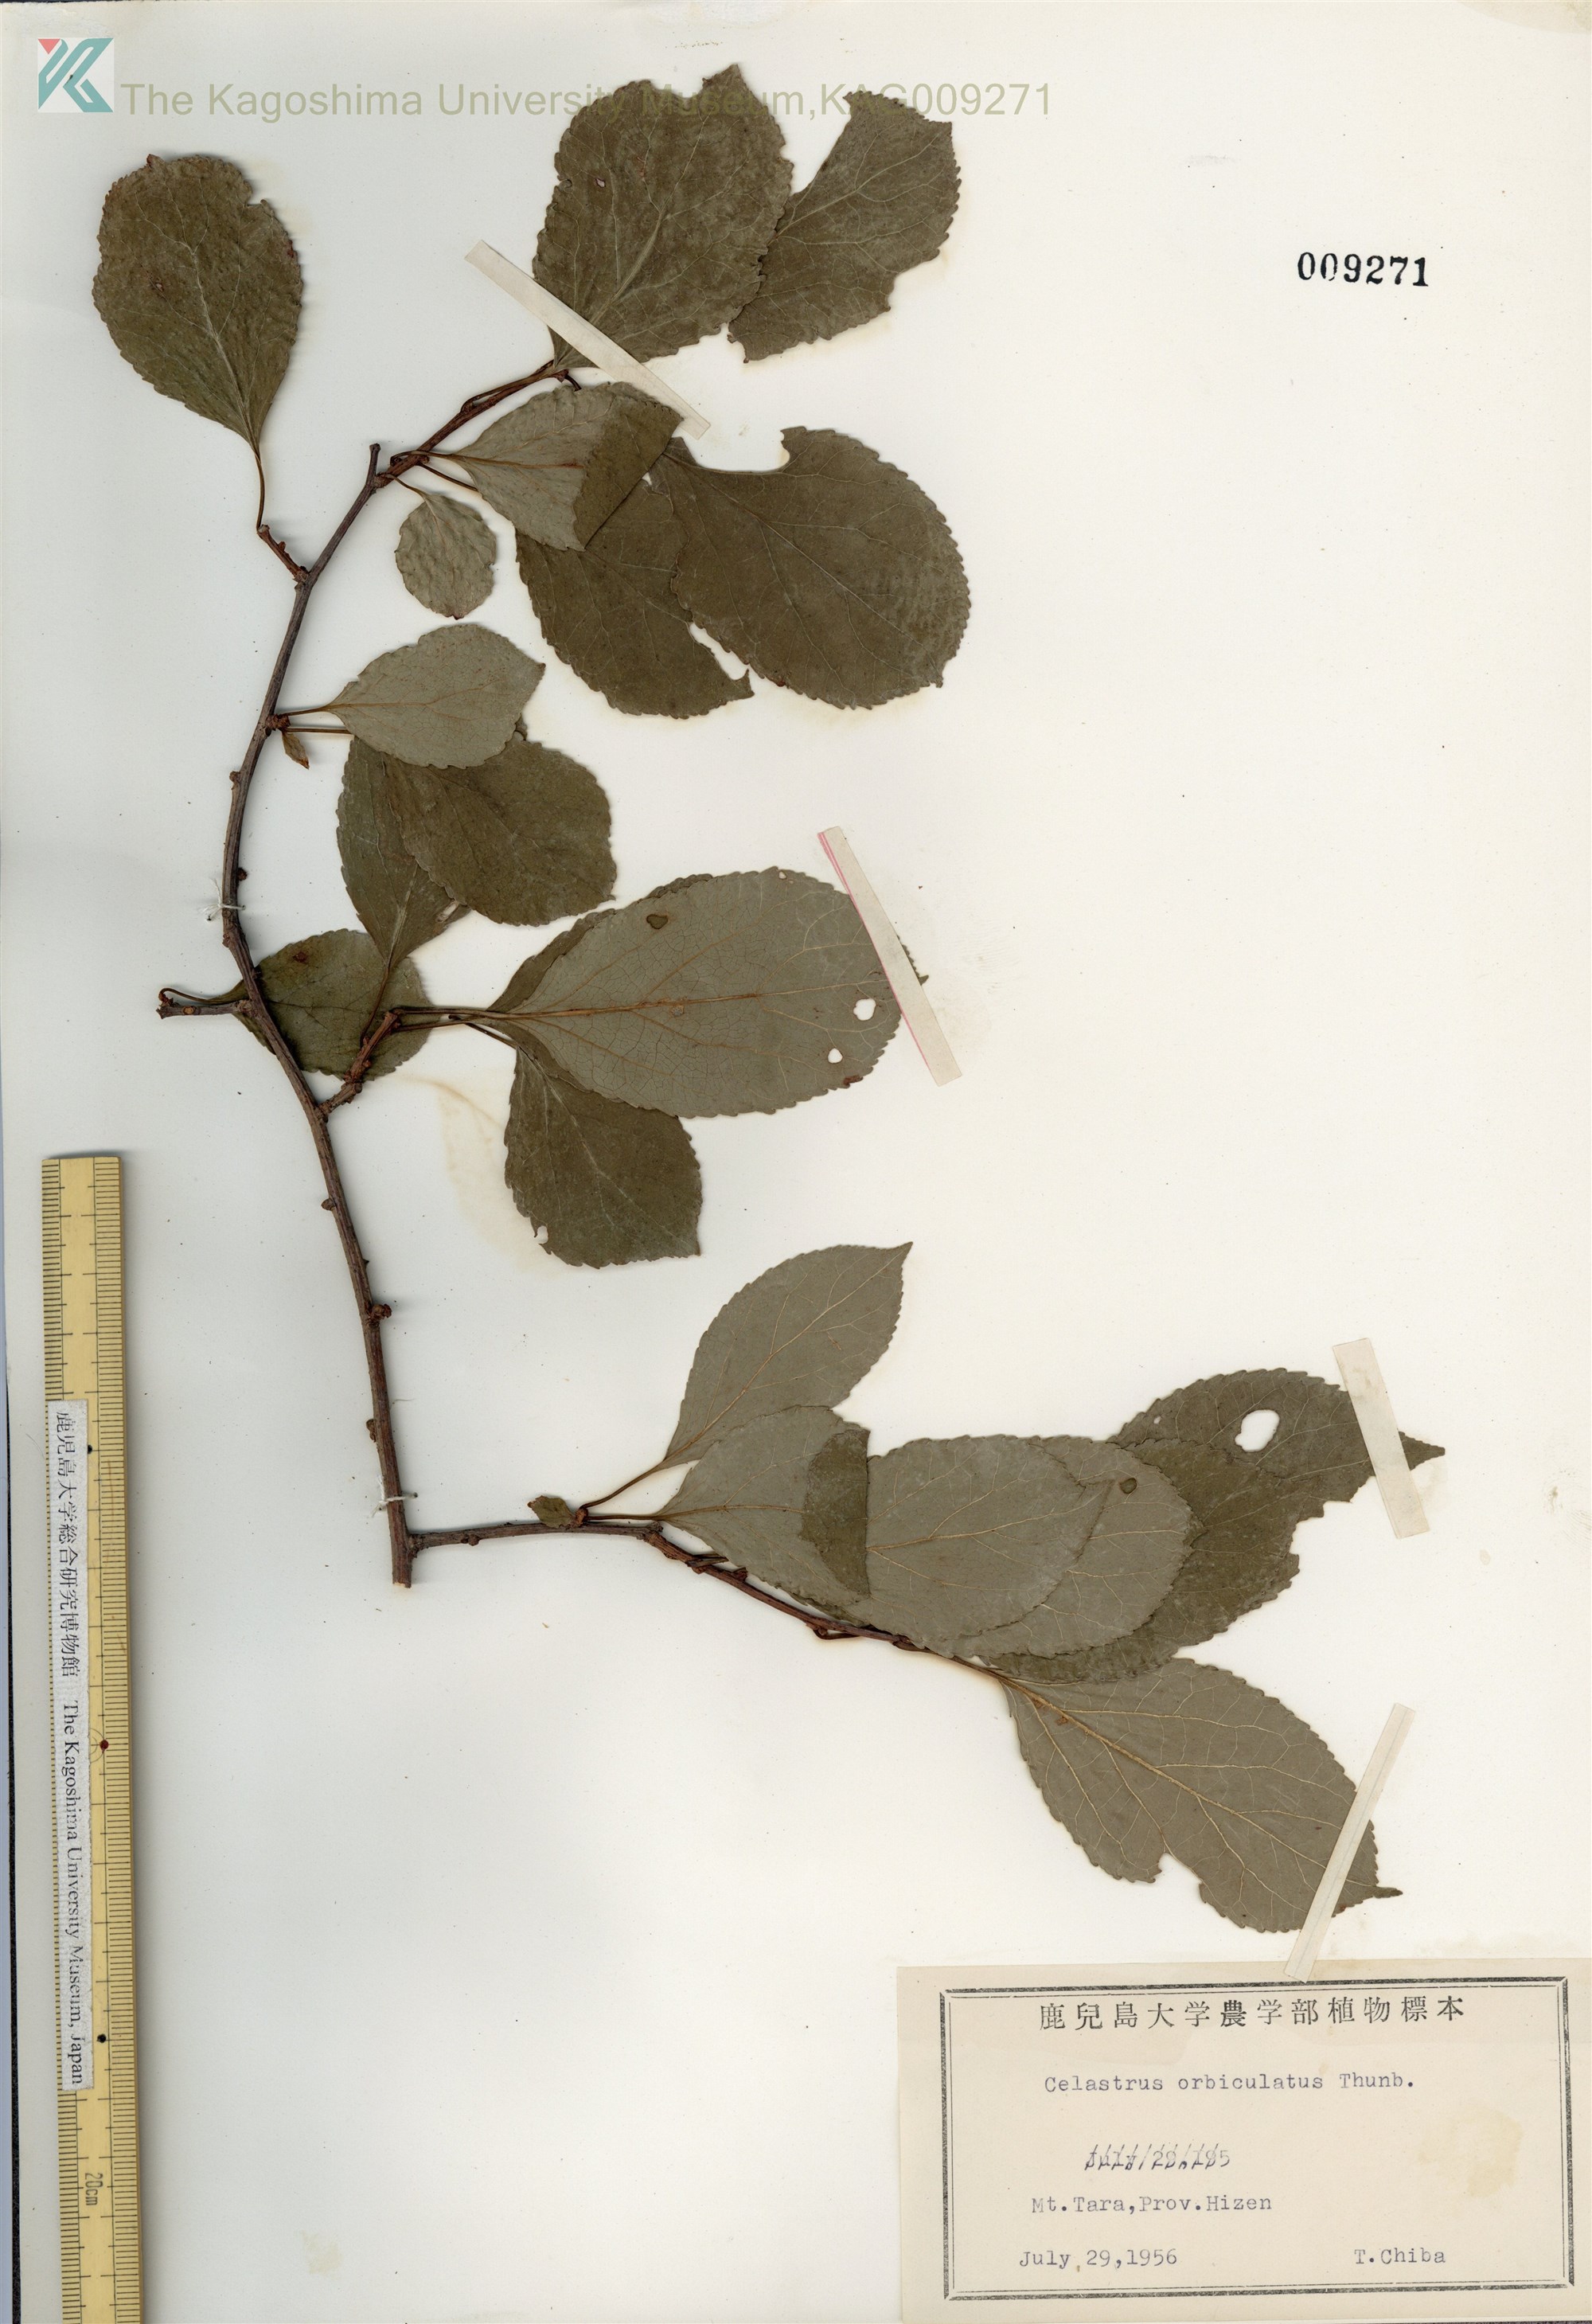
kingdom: Plantae
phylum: Tracheophyta
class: Magnoliopsida
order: Celastrales
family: Celastraceae
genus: Celastrus
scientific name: Celastrus orbiculatus
